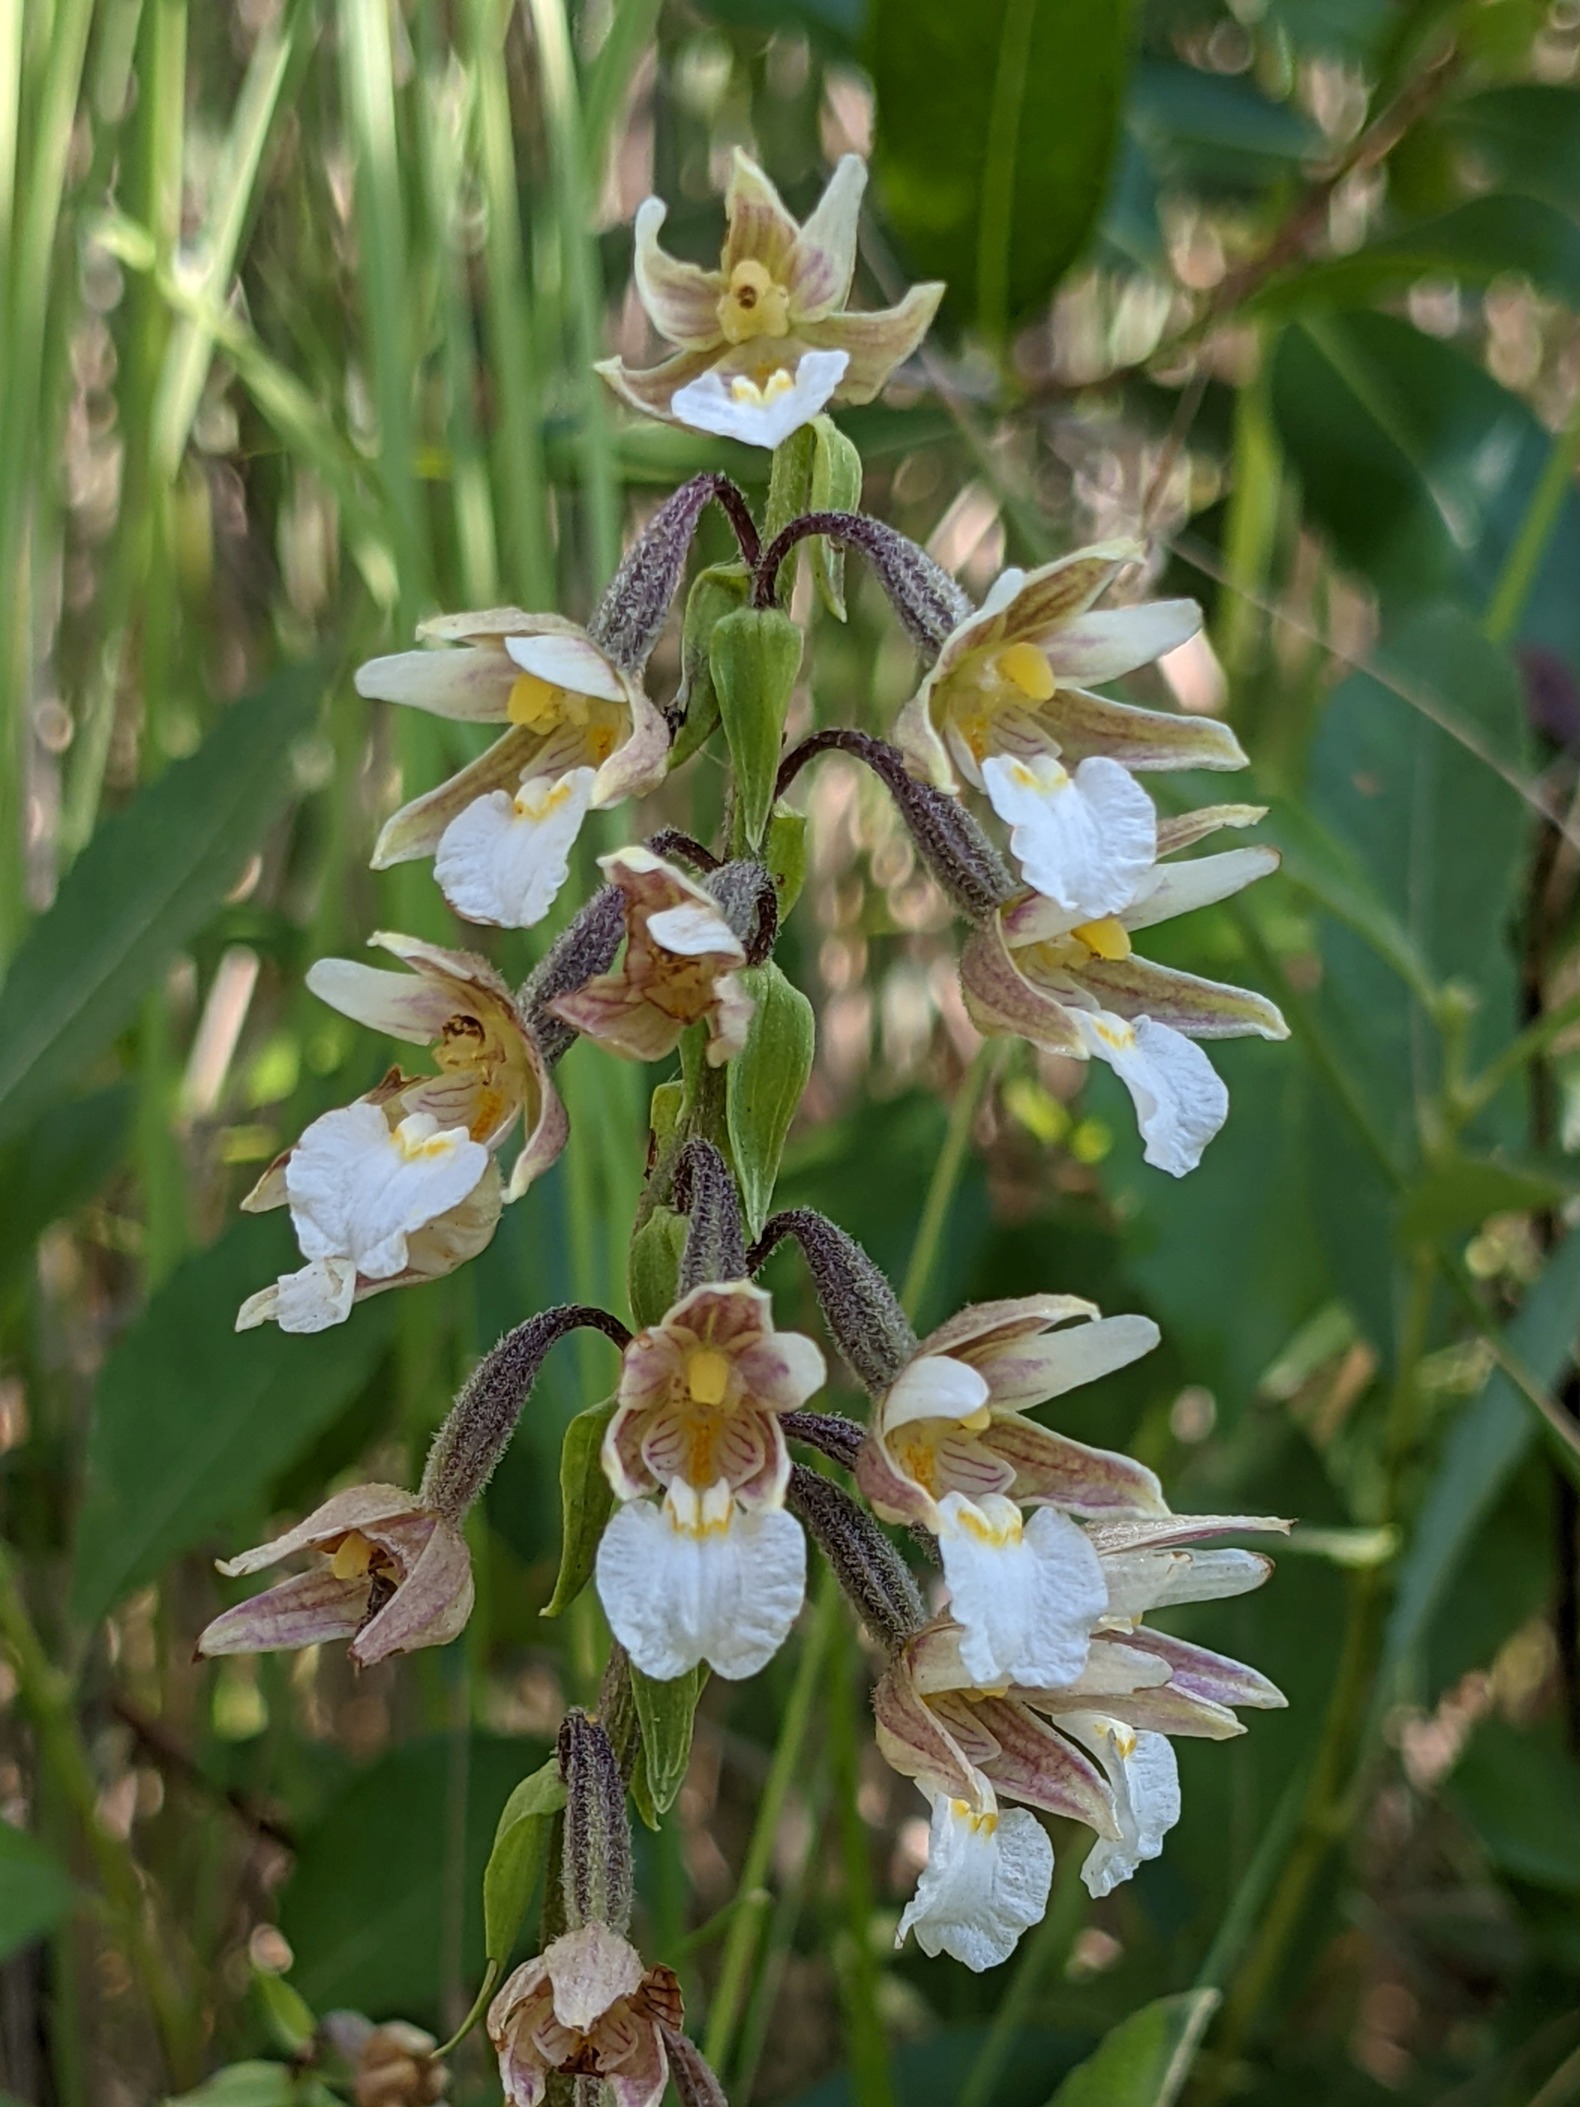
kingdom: Plantae
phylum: Tracheophyta
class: Liliopsida
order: Asparagales
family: Orchidaceae
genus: Epipactis
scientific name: Epipactis palustris
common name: Sump-hullæbe
